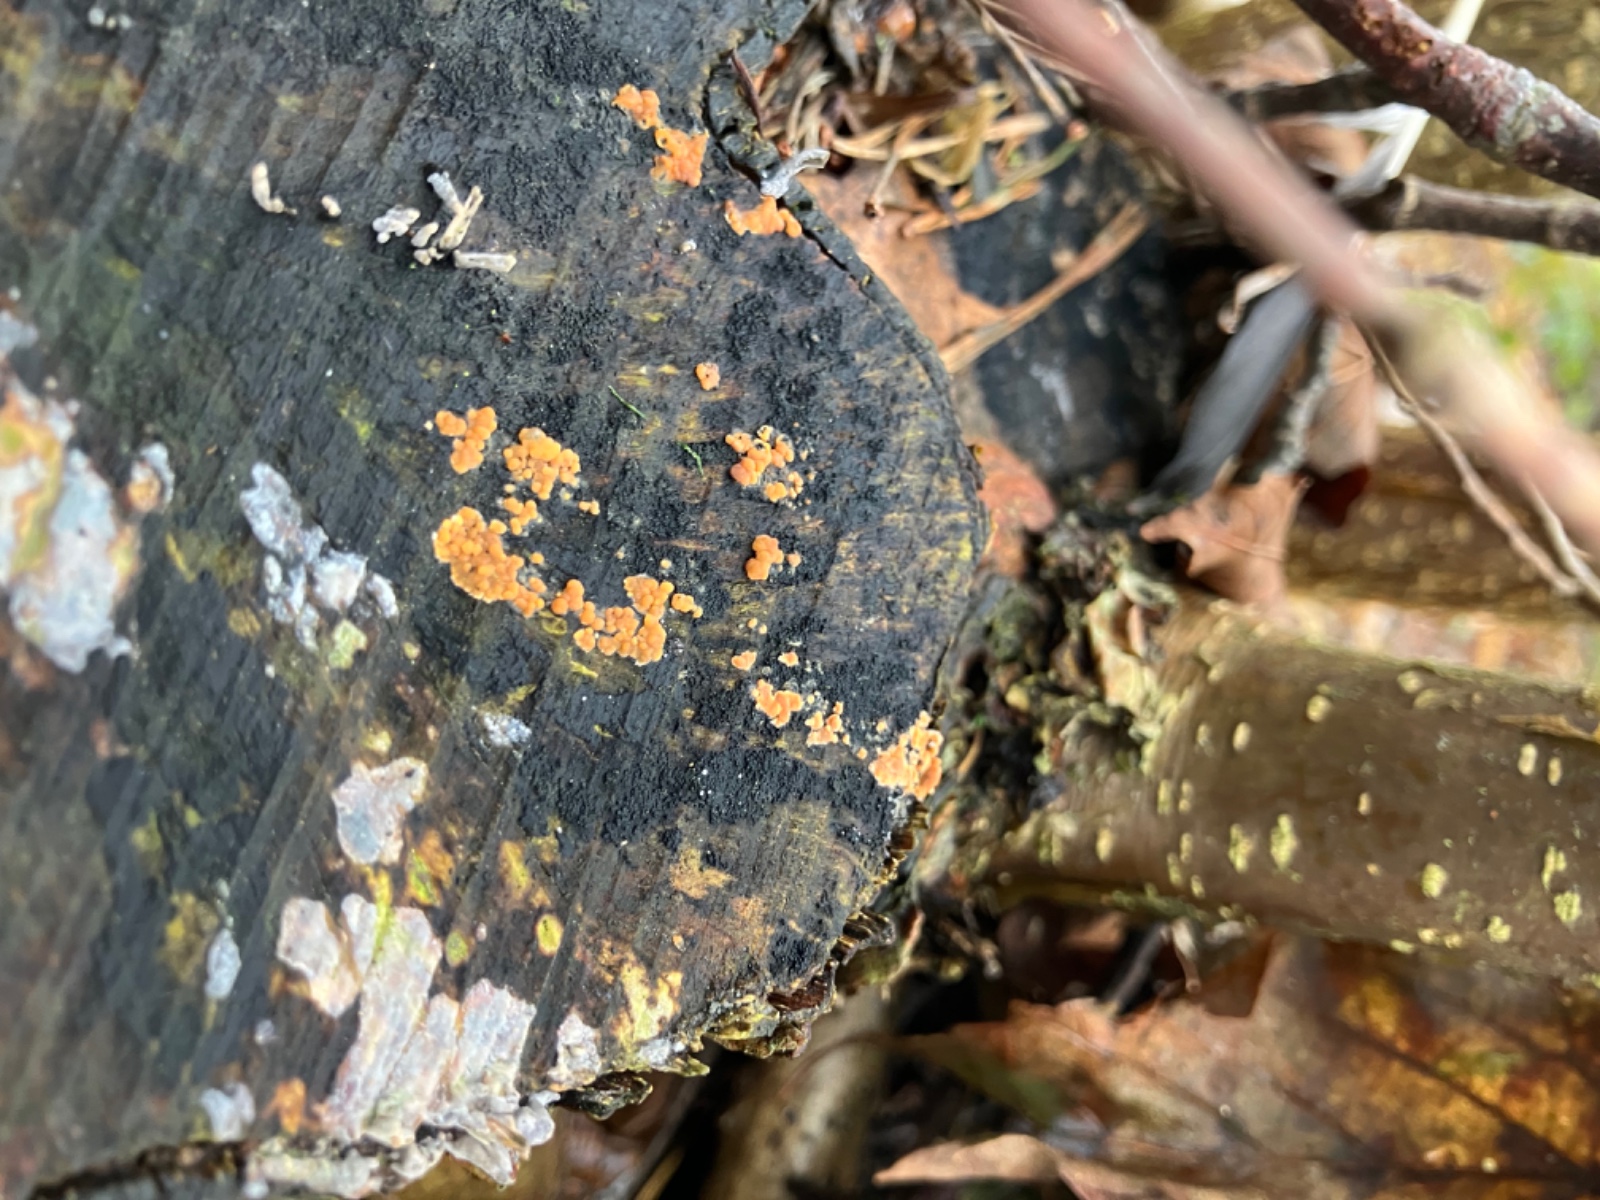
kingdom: Fungi
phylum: Basidiomycota
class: Agaricomycetes
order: Russulales
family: Peniophoraceae
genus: Peniophora
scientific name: Peniophora incarnata
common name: laksefarvet voksskind
